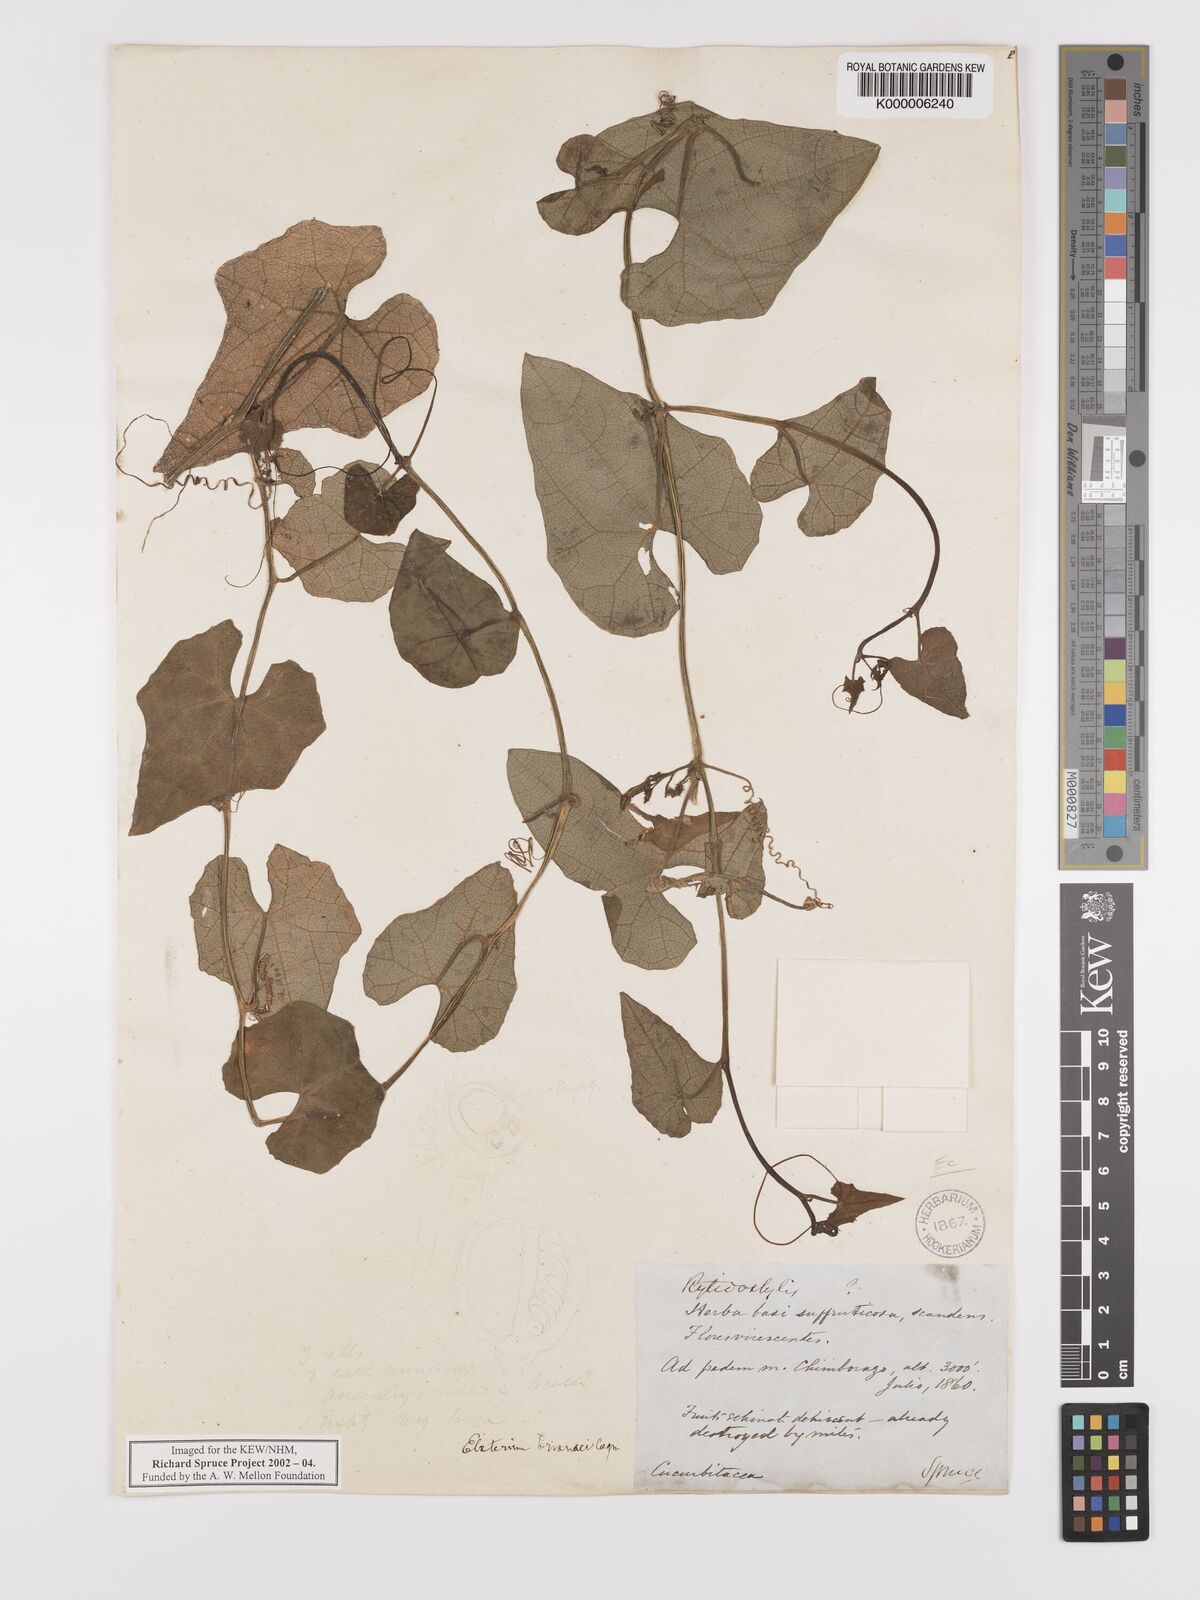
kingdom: Plantae
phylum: Tracheophyta
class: Magnoliopsida
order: Cucurbitales
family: Cucurbitaceae
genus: Elaterium
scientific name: Elaterium
